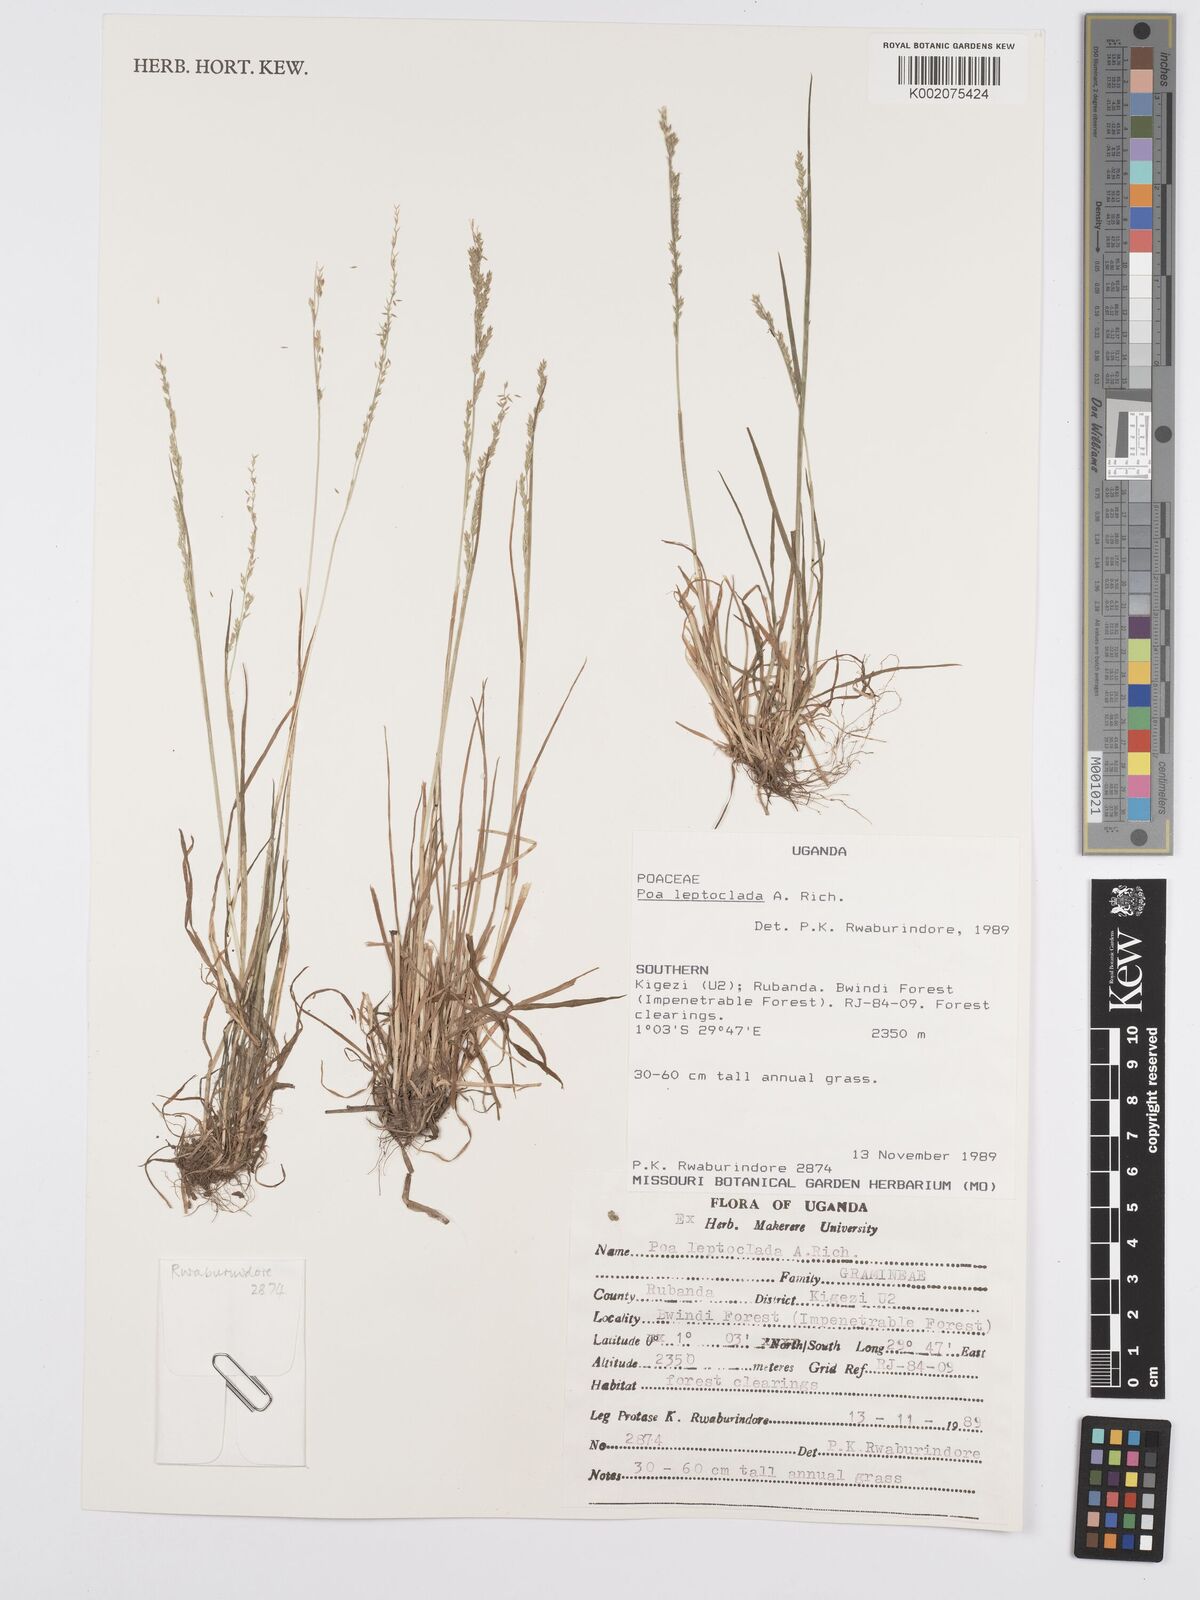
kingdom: Plantae
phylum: Tracheophyta
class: Liliopsida
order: Poales
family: Poaceae
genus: Poa
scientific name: Poa
